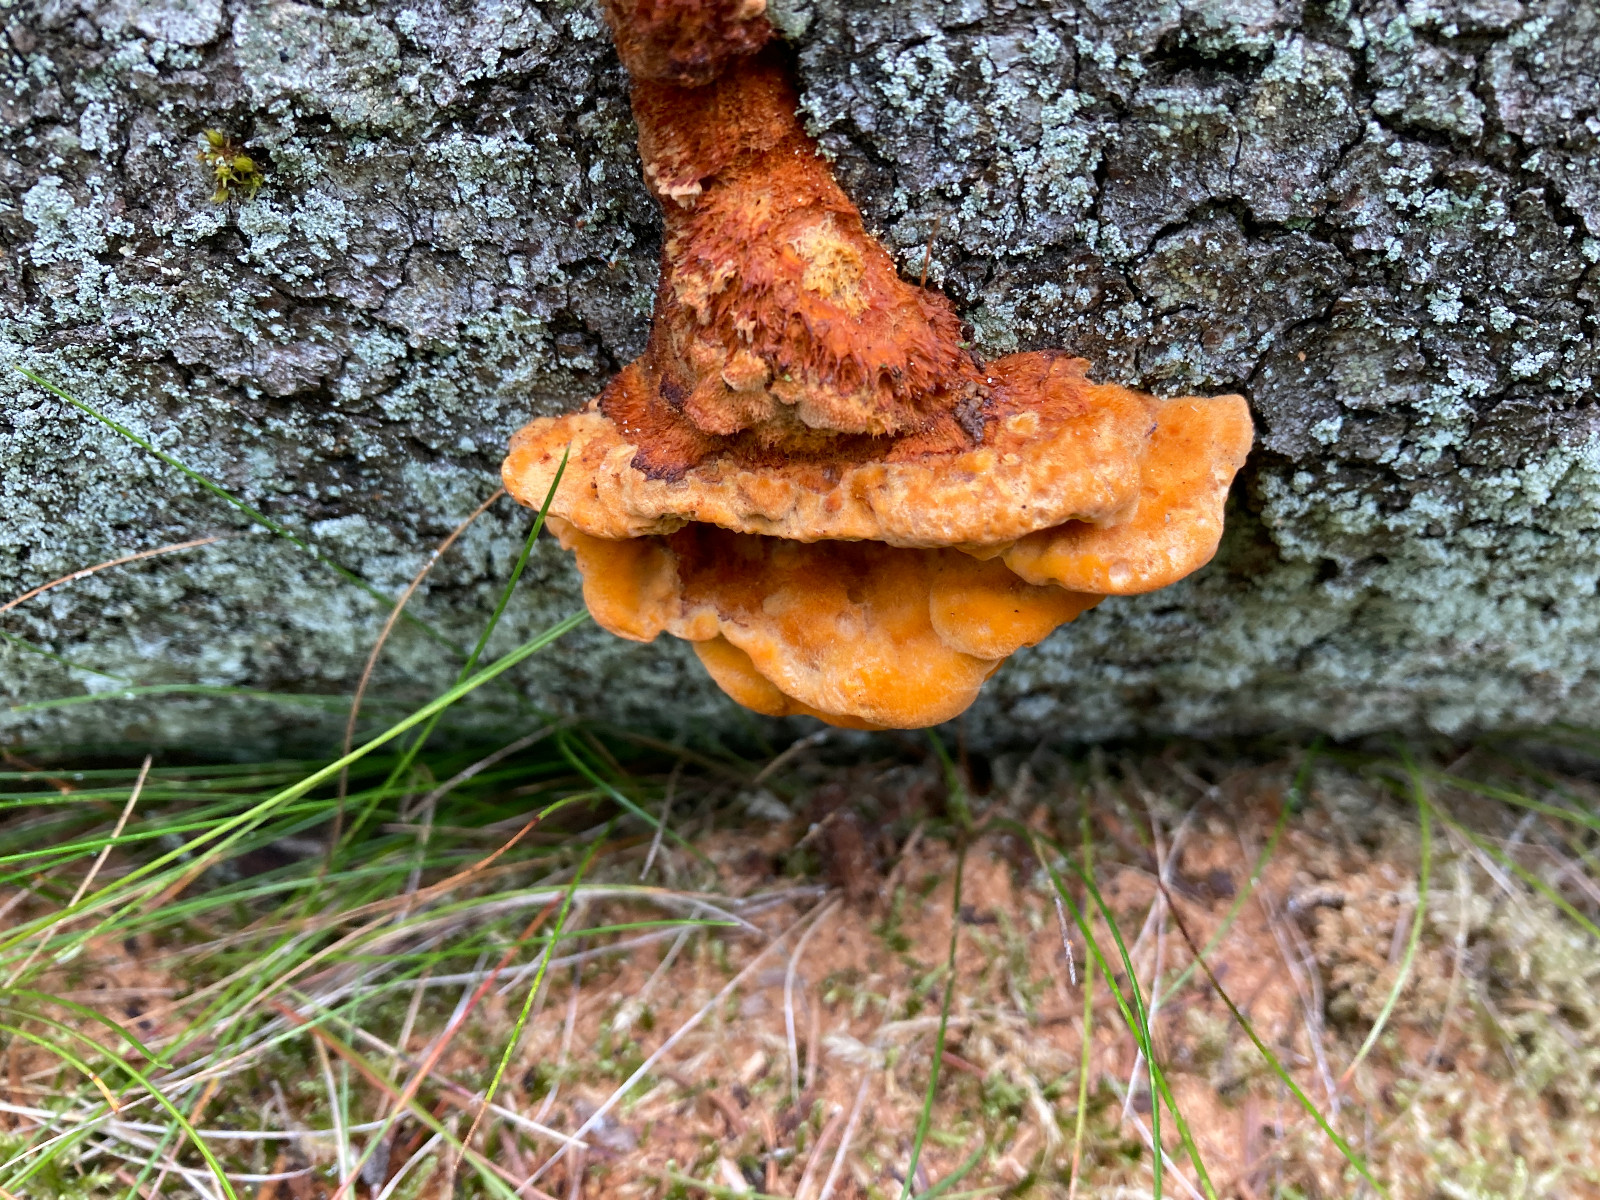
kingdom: Fungi
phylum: Basidiomycota
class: Agaricomycetes
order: Polyporales
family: Pycnoporellaceae
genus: Pycnoporellus
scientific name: Pycnoporellus fulgens
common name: flammeporesvamp
